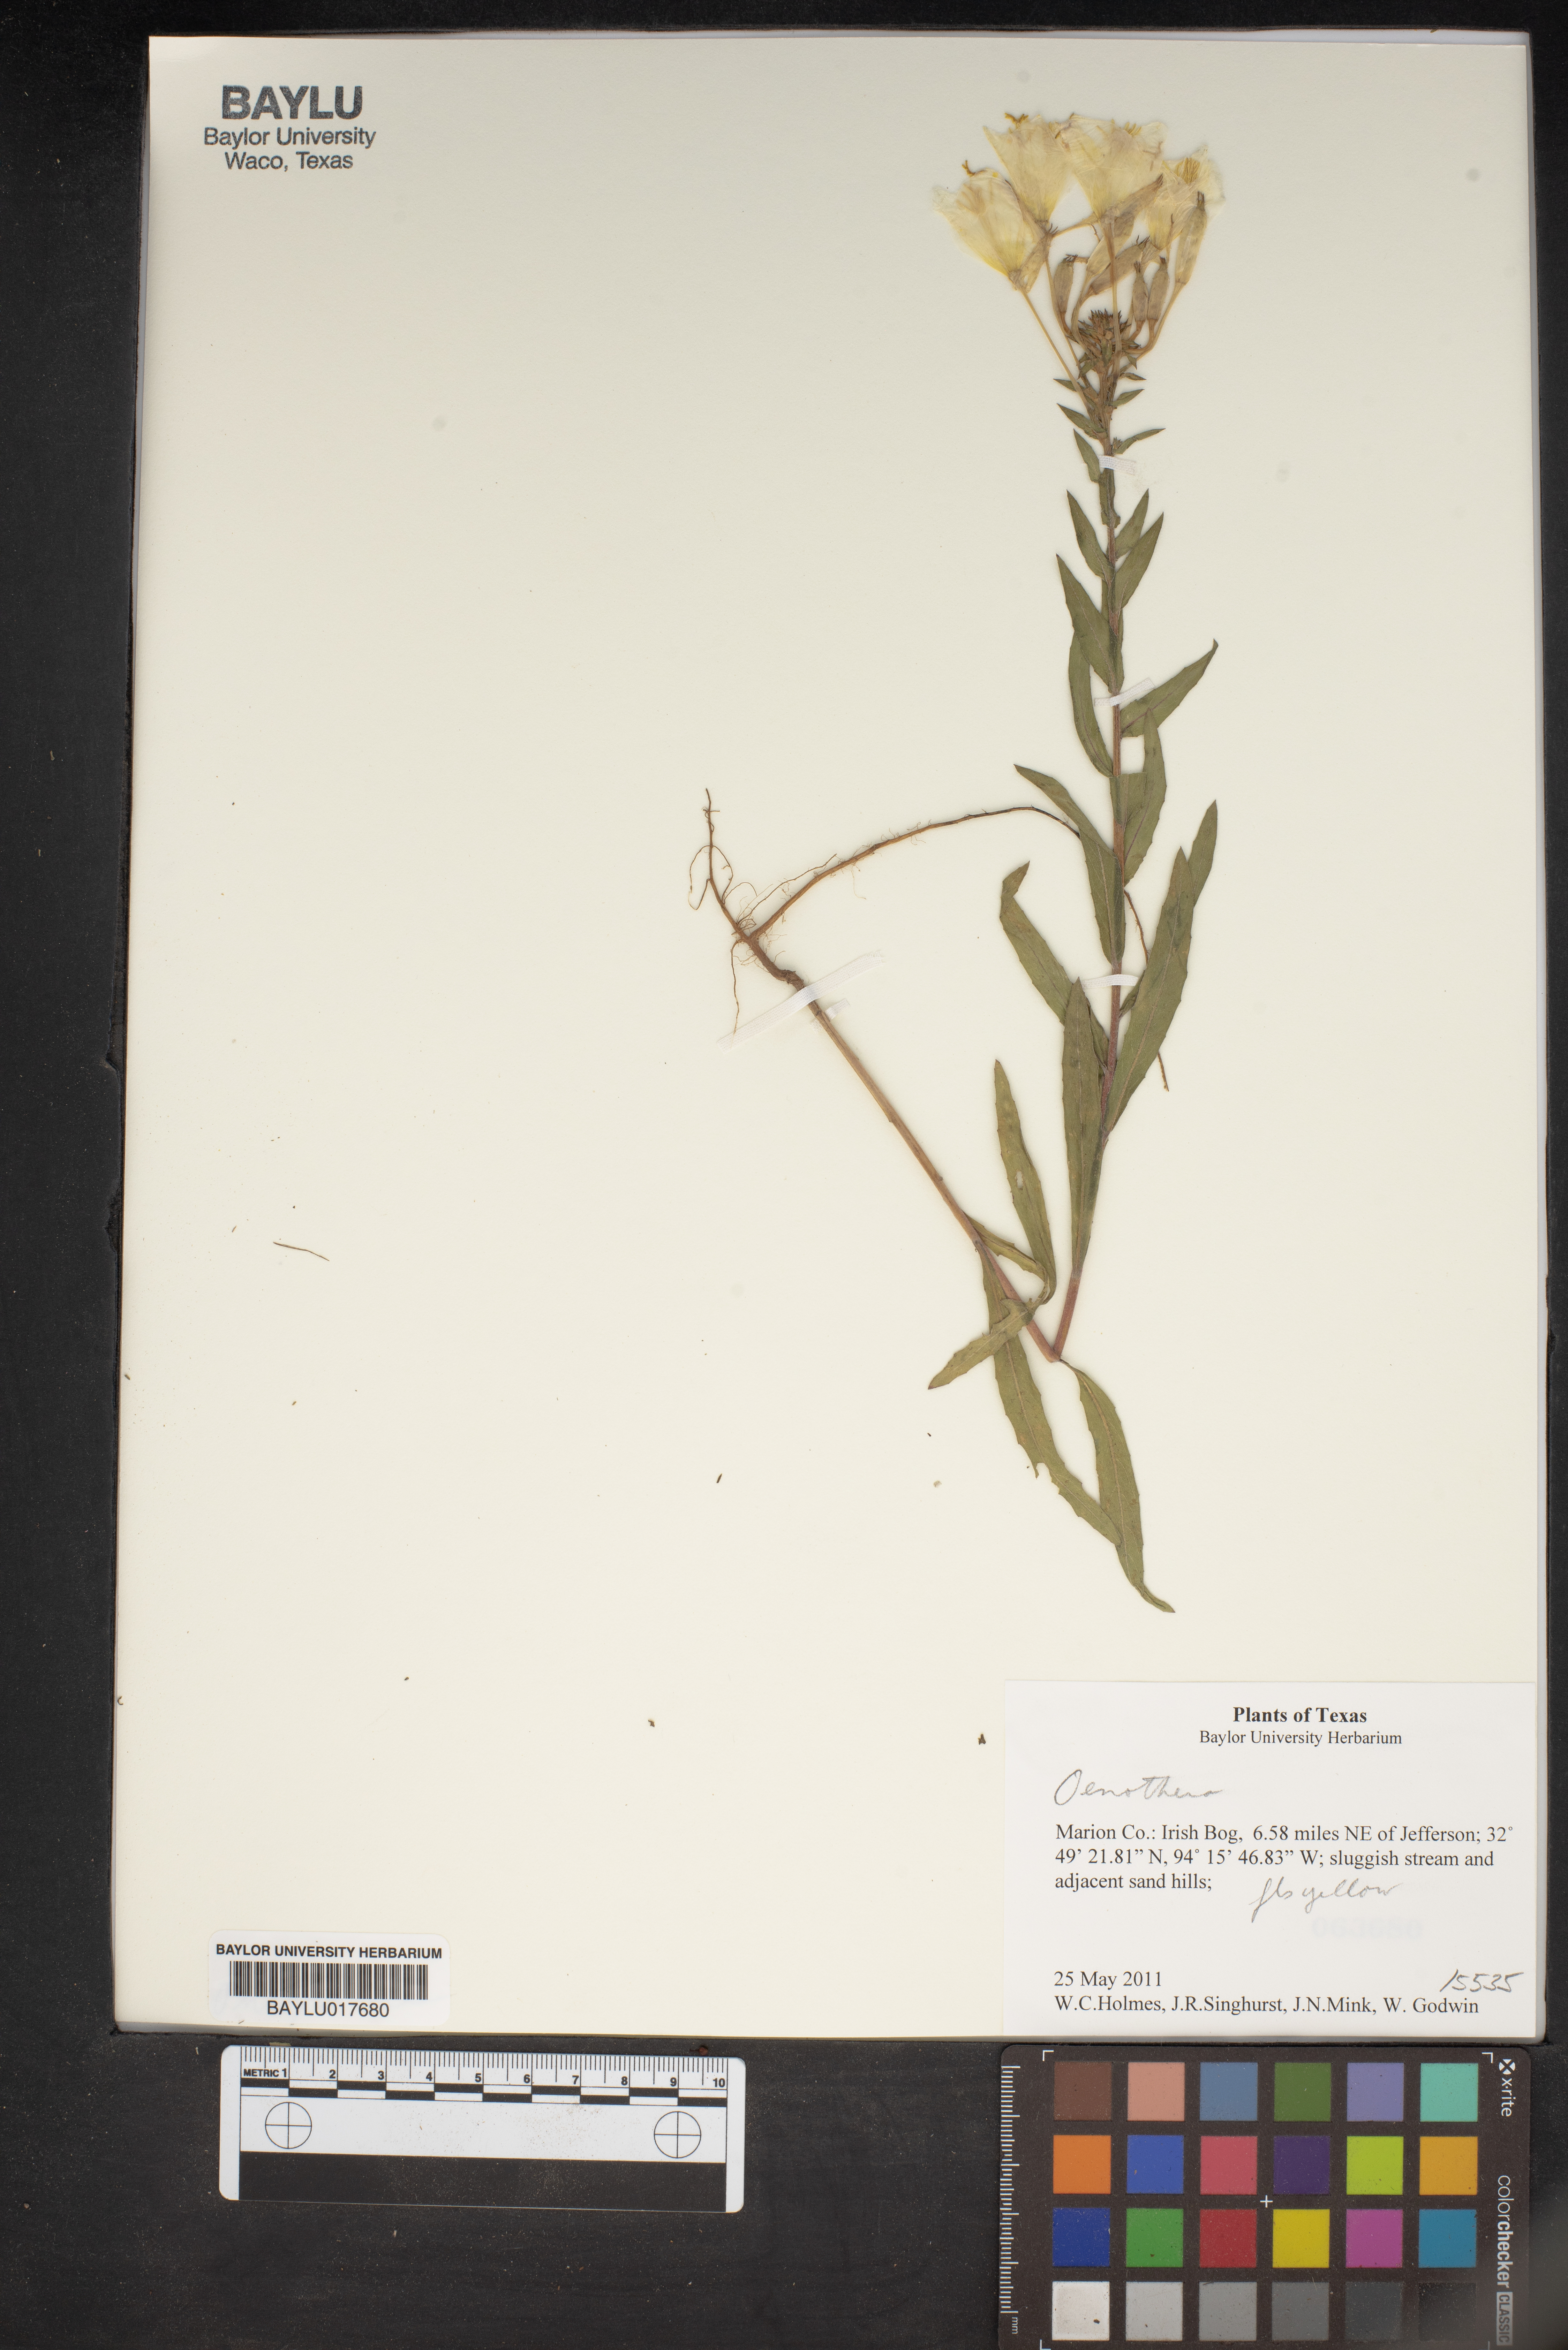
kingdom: Plantae
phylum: Tracheophyta
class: Magnoliopsida
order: Myrtales
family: Onagraceae
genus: Oenothera
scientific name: Oenothera
